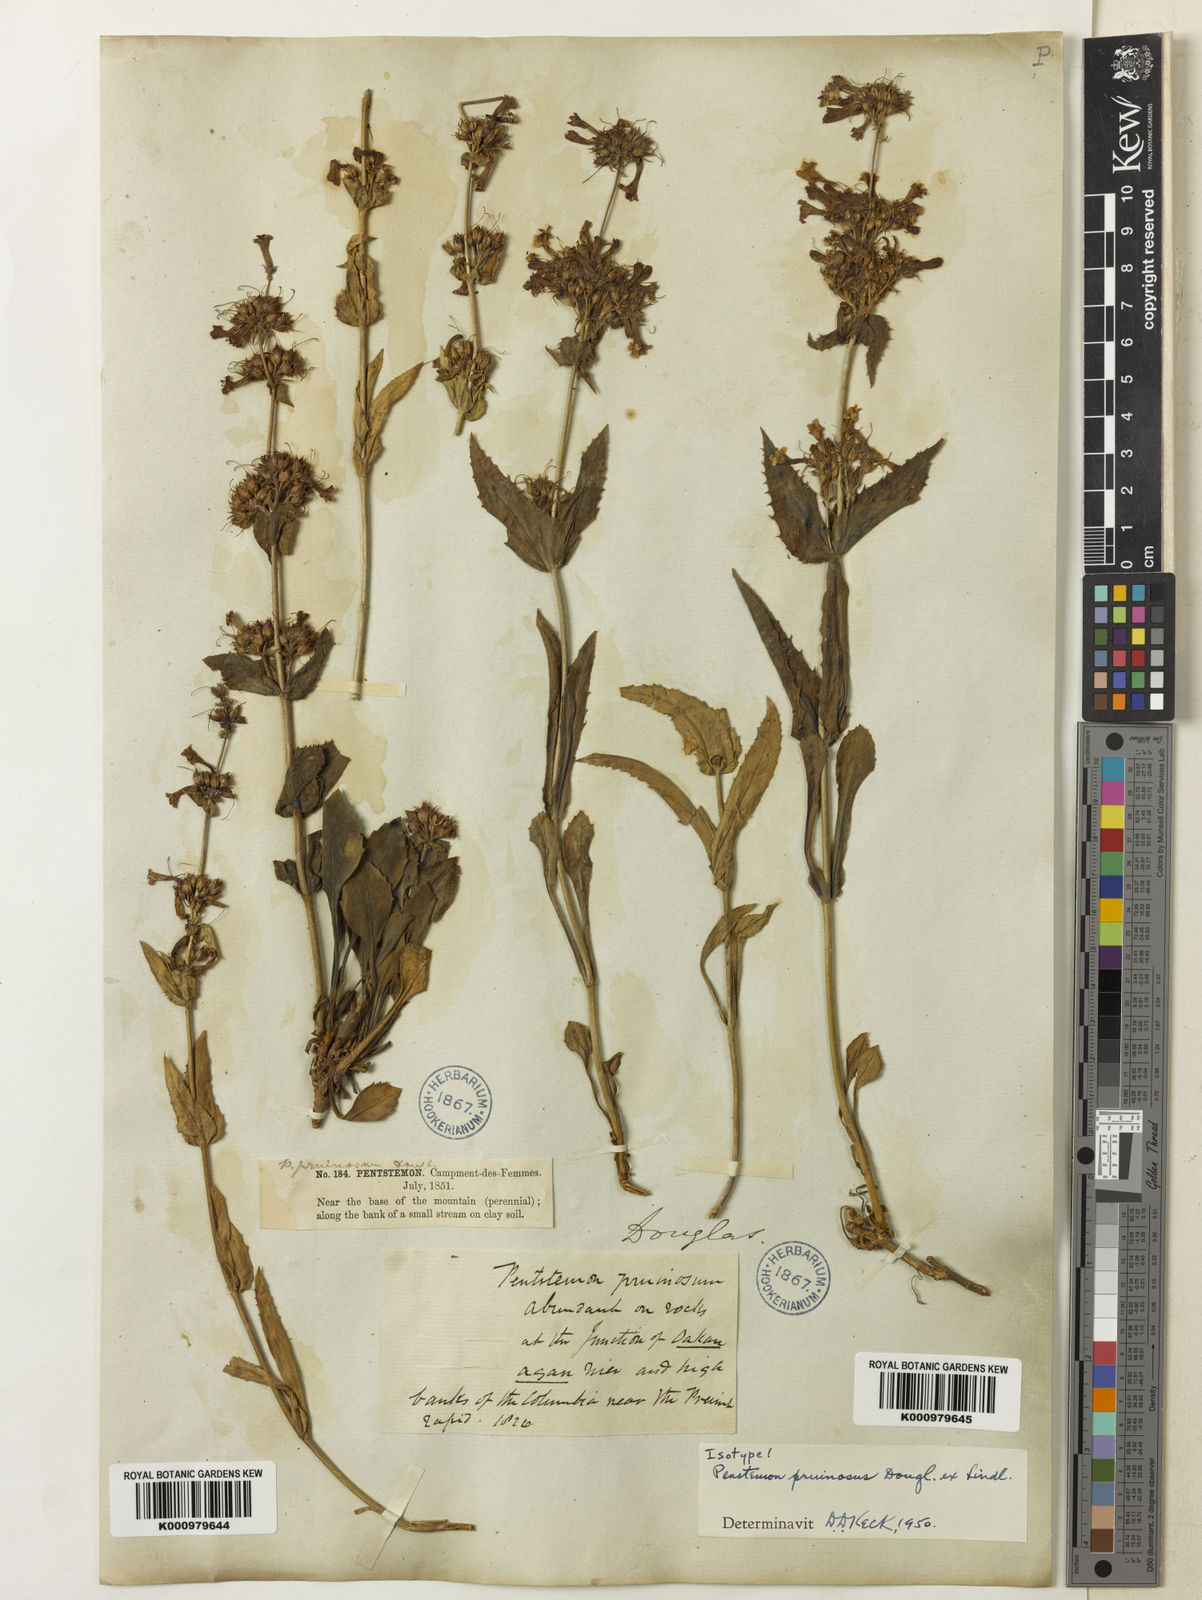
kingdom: Plantae
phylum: Tracheophyta
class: Magnoliopsida
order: Lamiales
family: Plantaginaceae
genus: Penstemon
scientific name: Penstemon
